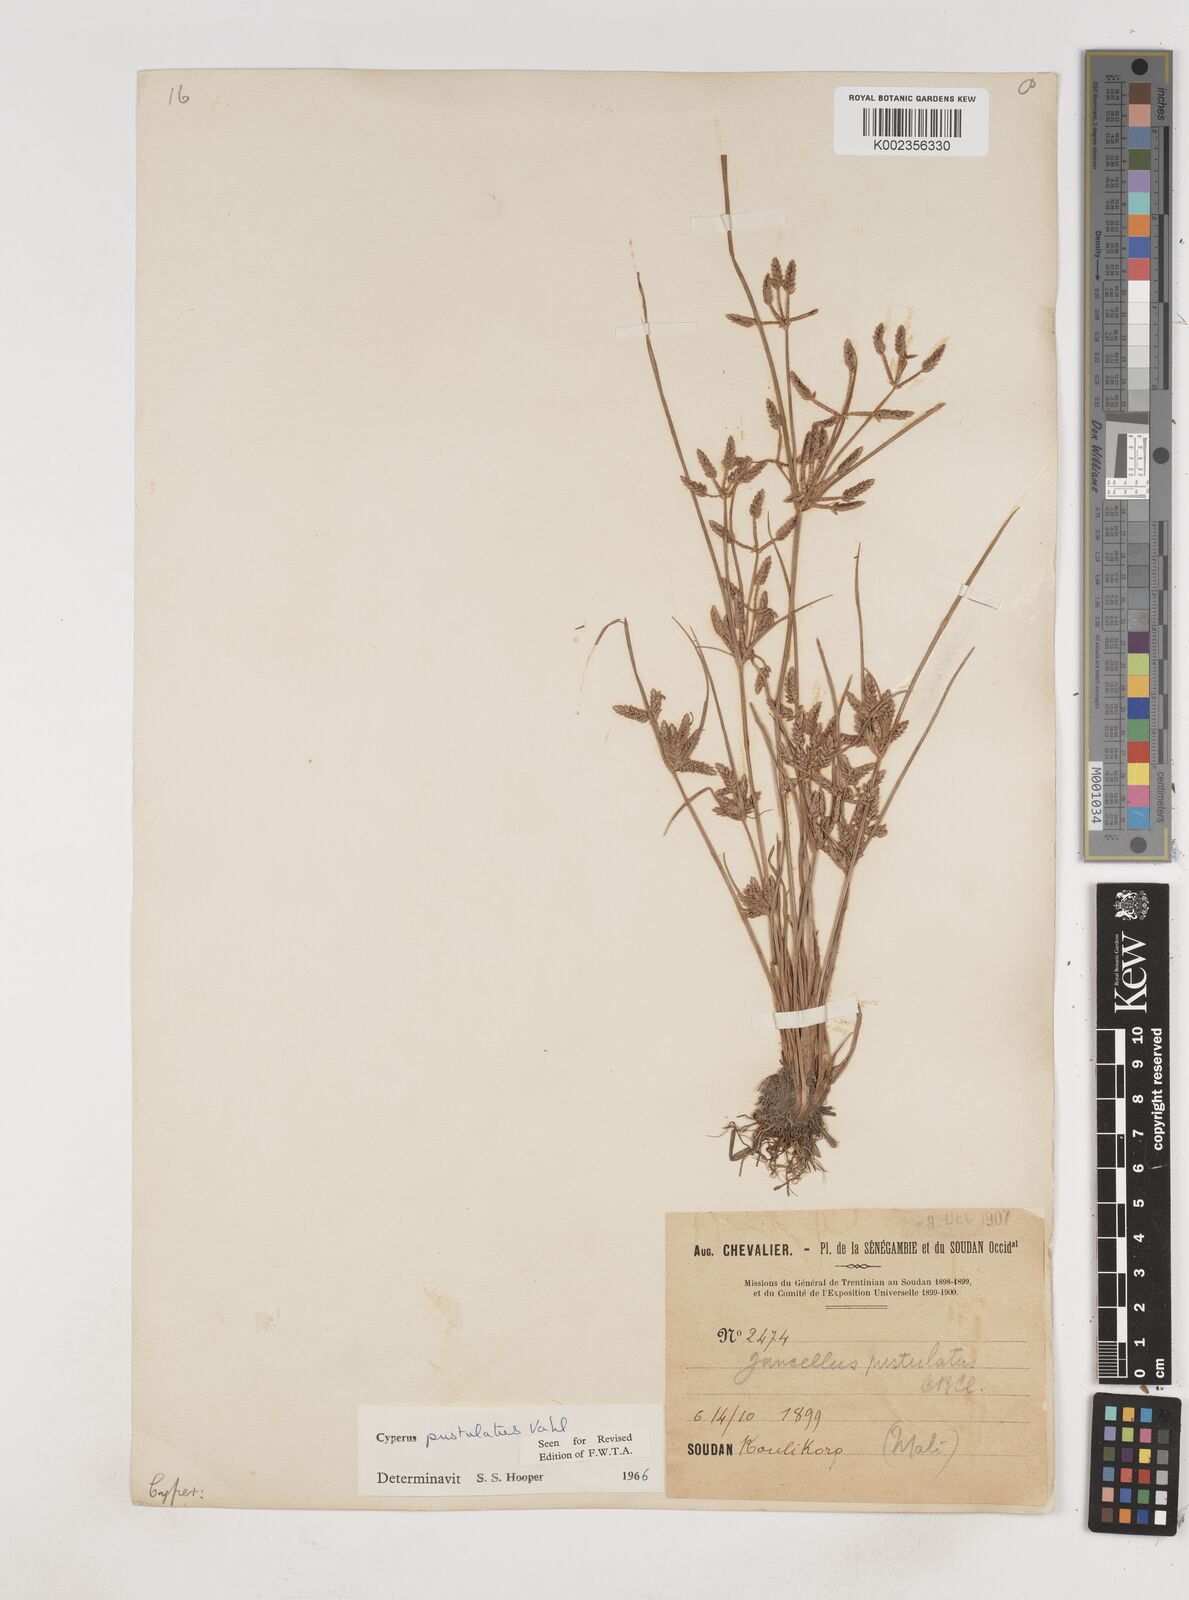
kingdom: Plantae
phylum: Tracheophyta
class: Liliopsida
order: Poales
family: Cyperaceae
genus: Cyperus
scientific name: Cyperus pustulatus
